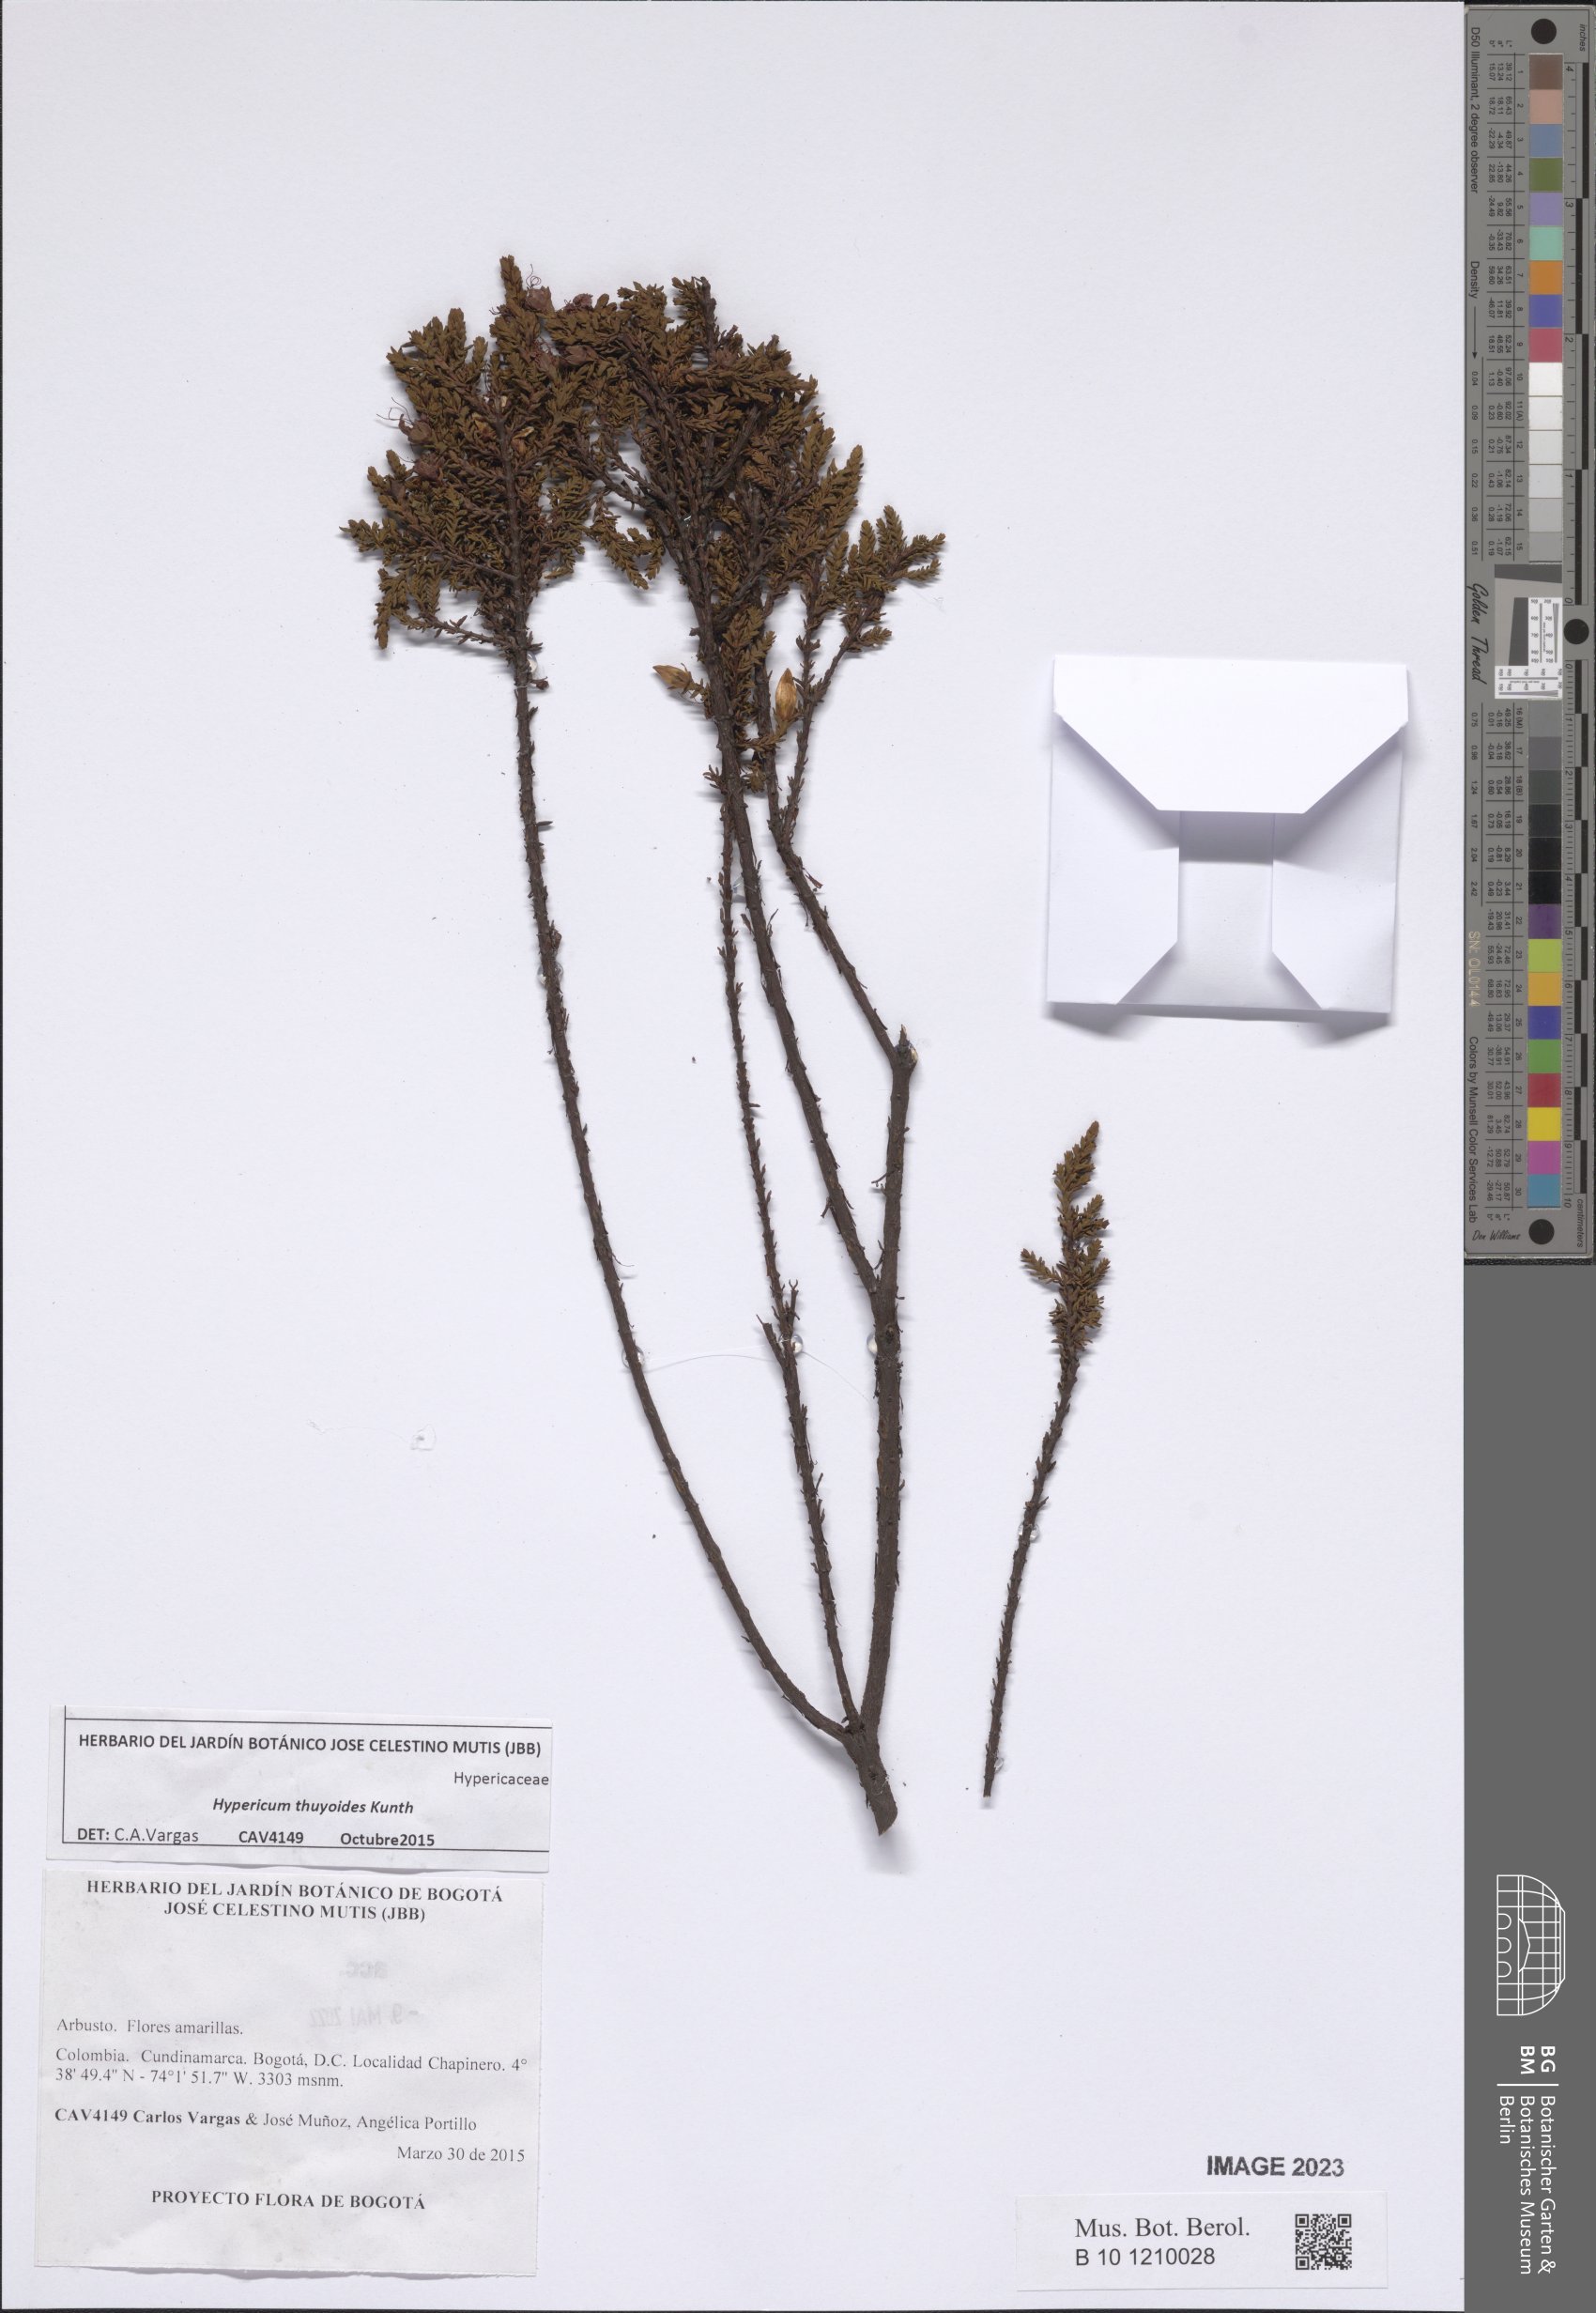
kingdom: Plantae
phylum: Tracheophyta
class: Magnoliopsida
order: Malpighiales
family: Hypericaceae
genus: Hypericum
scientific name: Hypericum thuyoides
